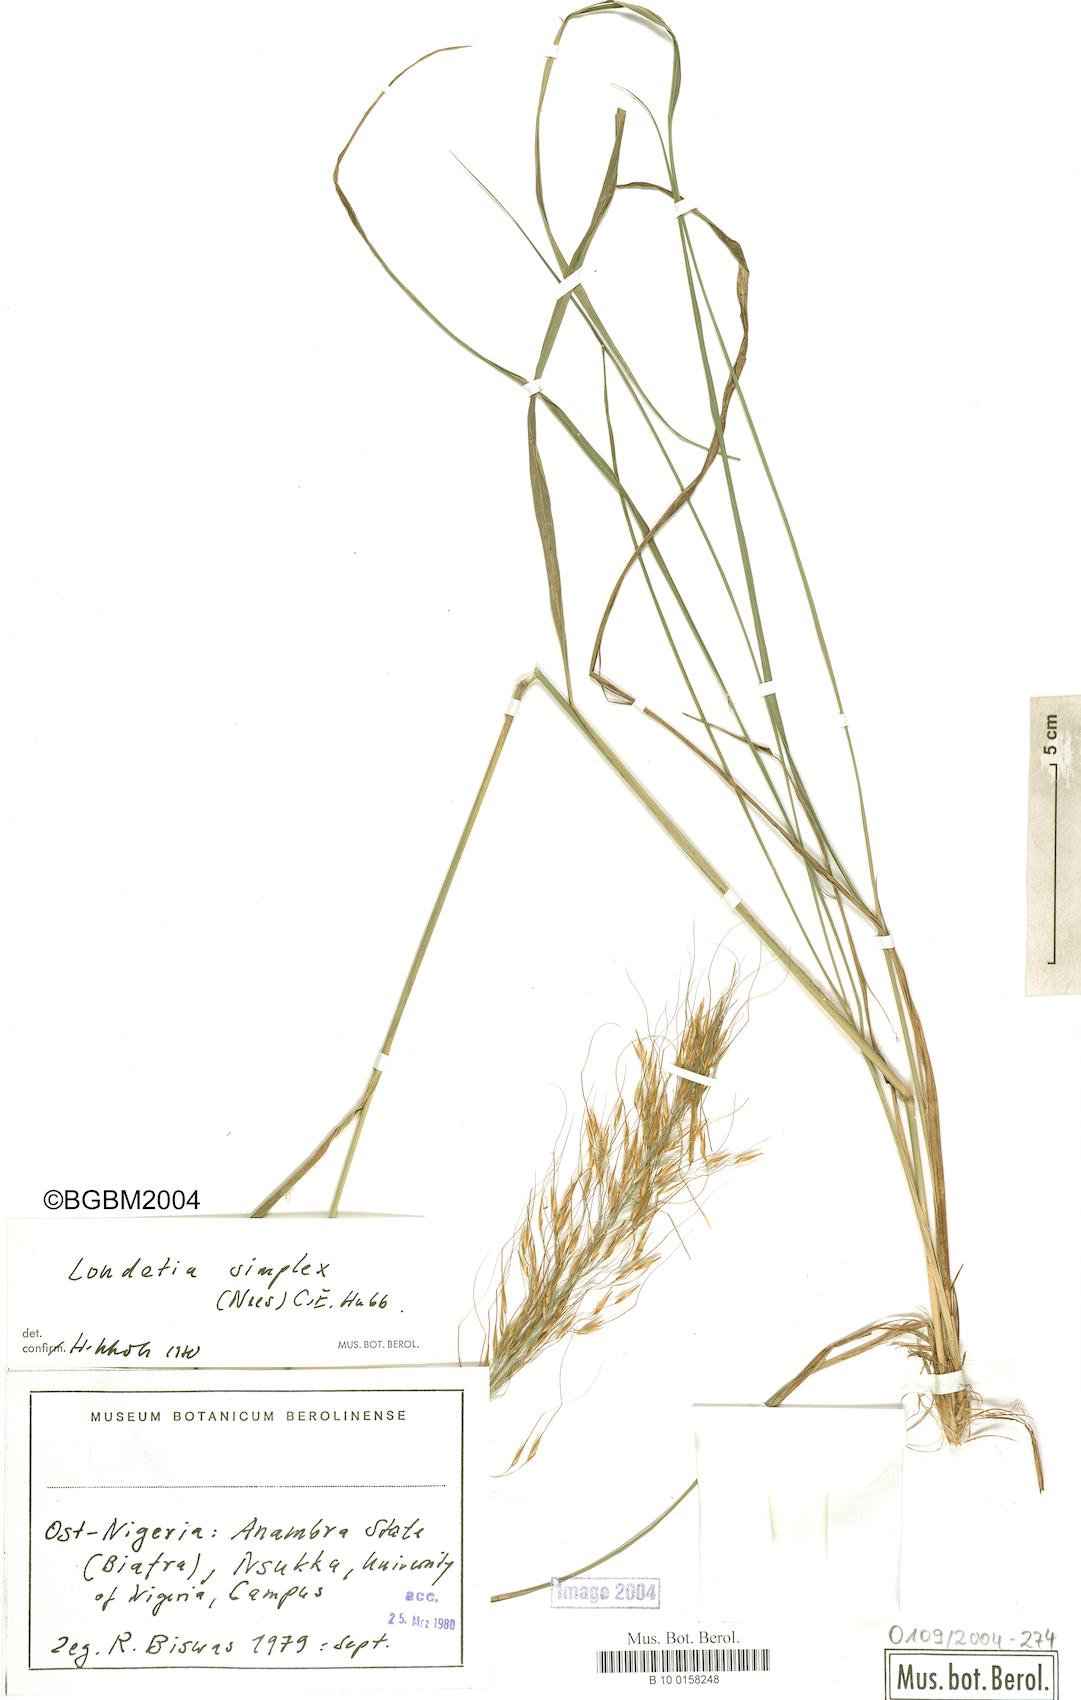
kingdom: Plantae
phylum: Tracheophyta
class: Liliopsida
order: Poales
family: Poaceae
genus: Loudetia
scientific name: Loudetia simplex
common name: Common russet grass
